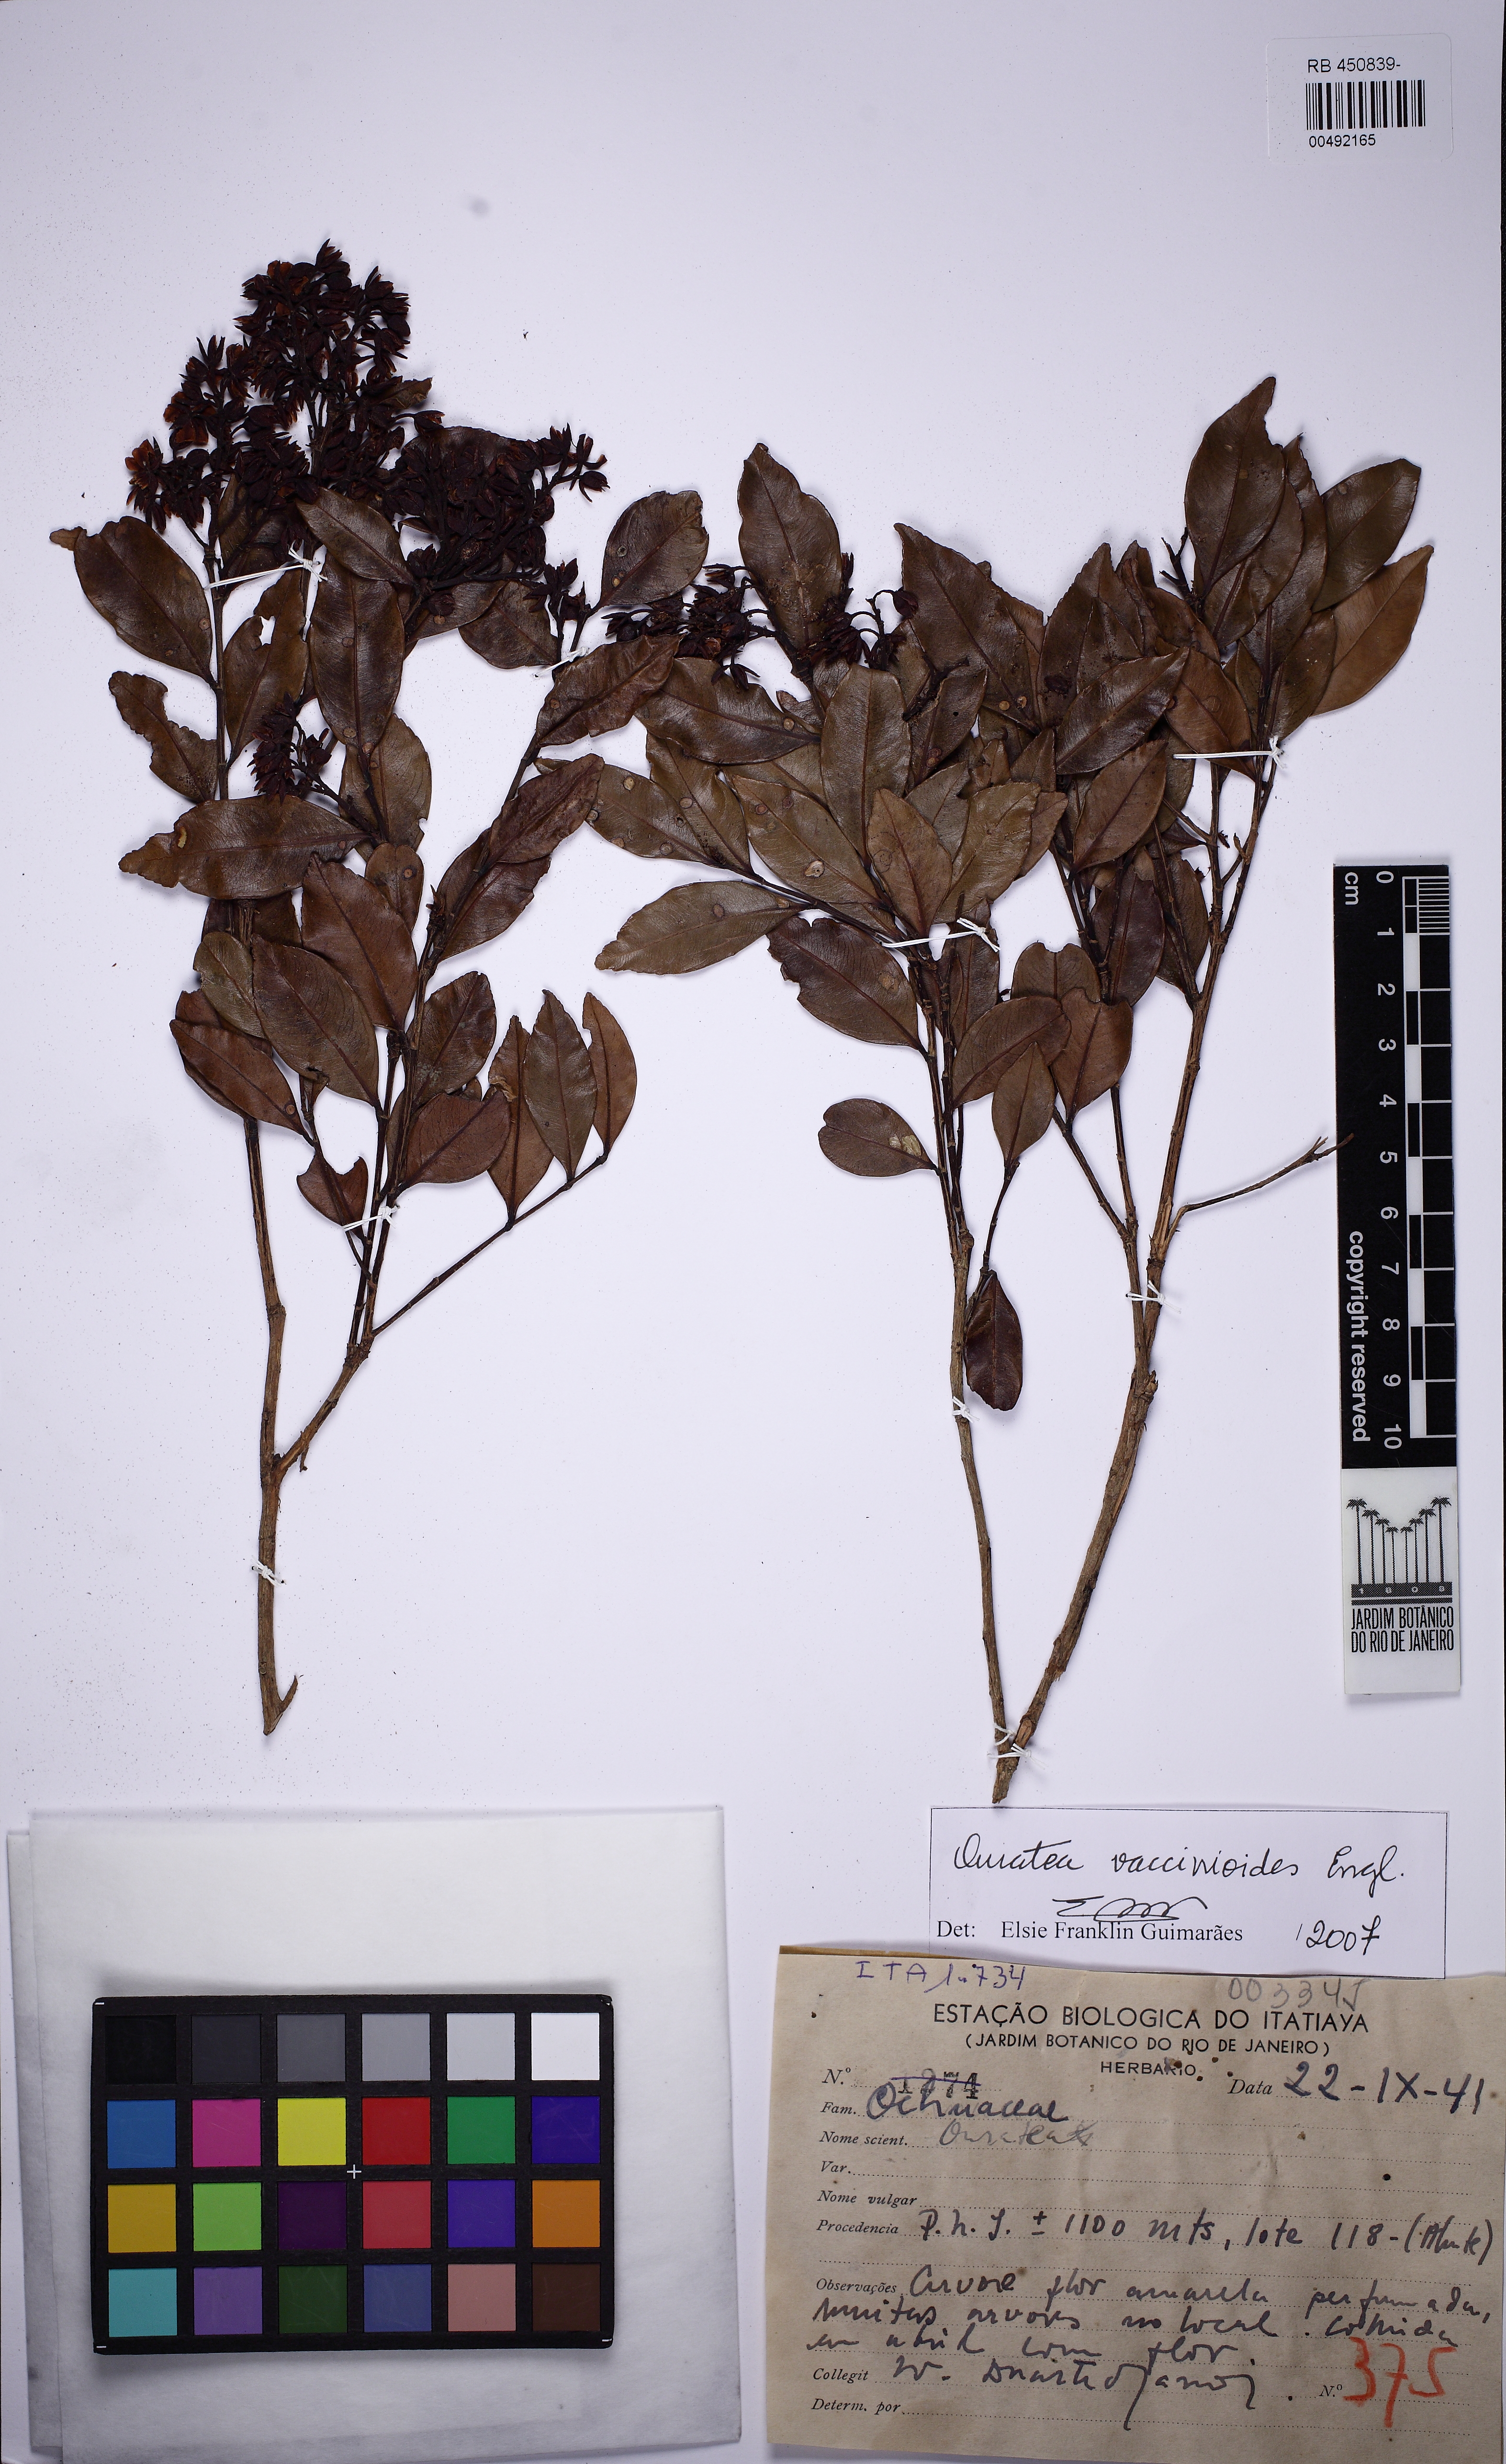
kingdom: Plantae
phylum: Tracheophyta
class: Magnoliopsida
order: Malpighiales
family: Ochnaceae
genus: Ouratea
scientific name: Ouratea vaccinioides
